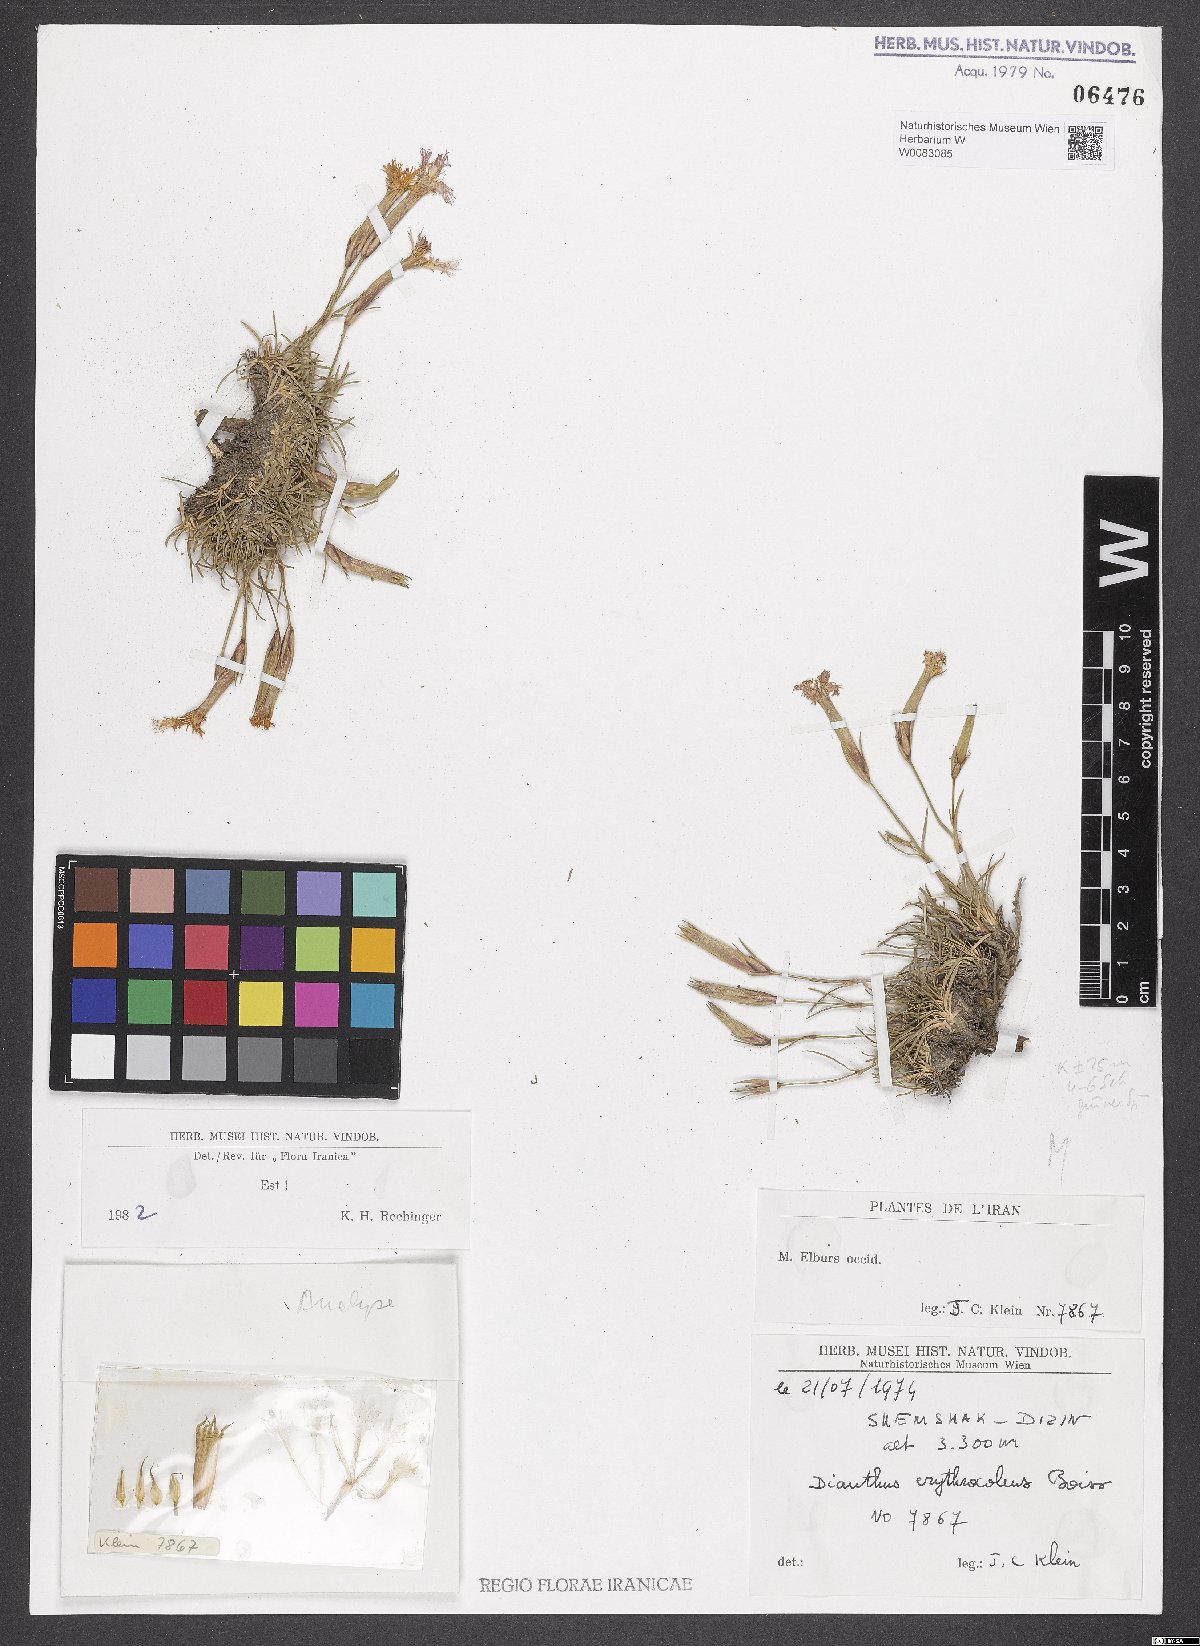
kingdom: Plantae
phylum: Tracheophyta
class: Magnoliopsida
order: Caryophyllales
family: Caryophyllaceae
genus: Dianthus
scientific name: Dianthus erythrocoleus
